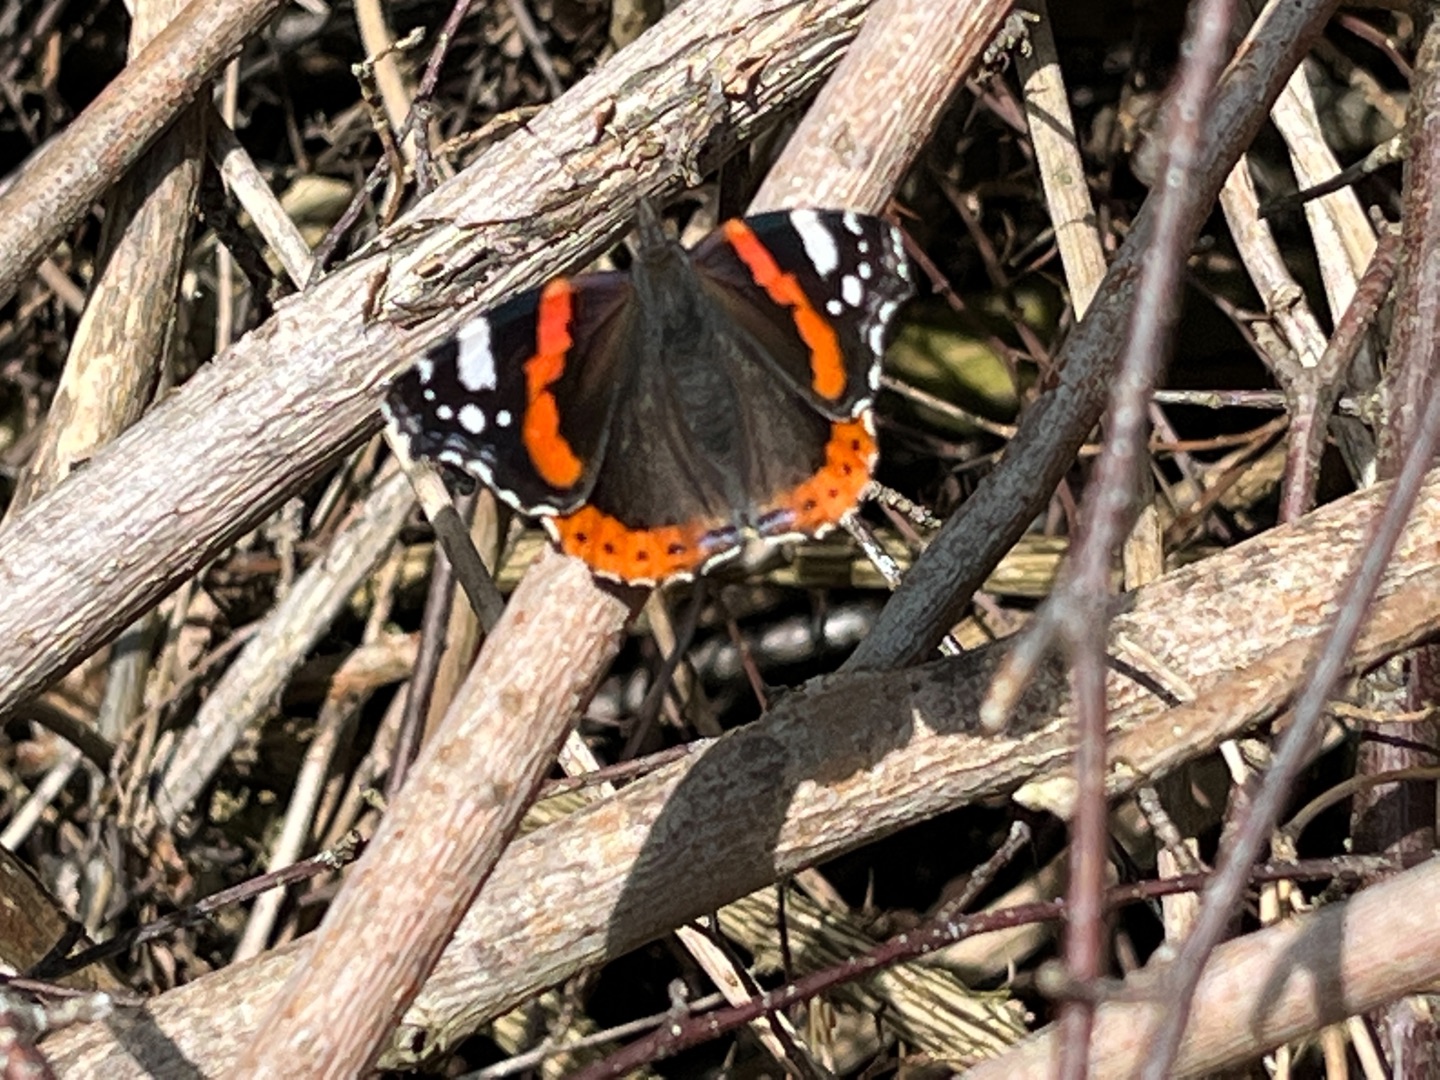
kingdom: Animalia
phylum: Arthropoda
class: Insecta
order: Lepidoptera
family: Nymphalidae
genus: Vanessa
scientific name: Vanessa atalanta
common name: Admiral
